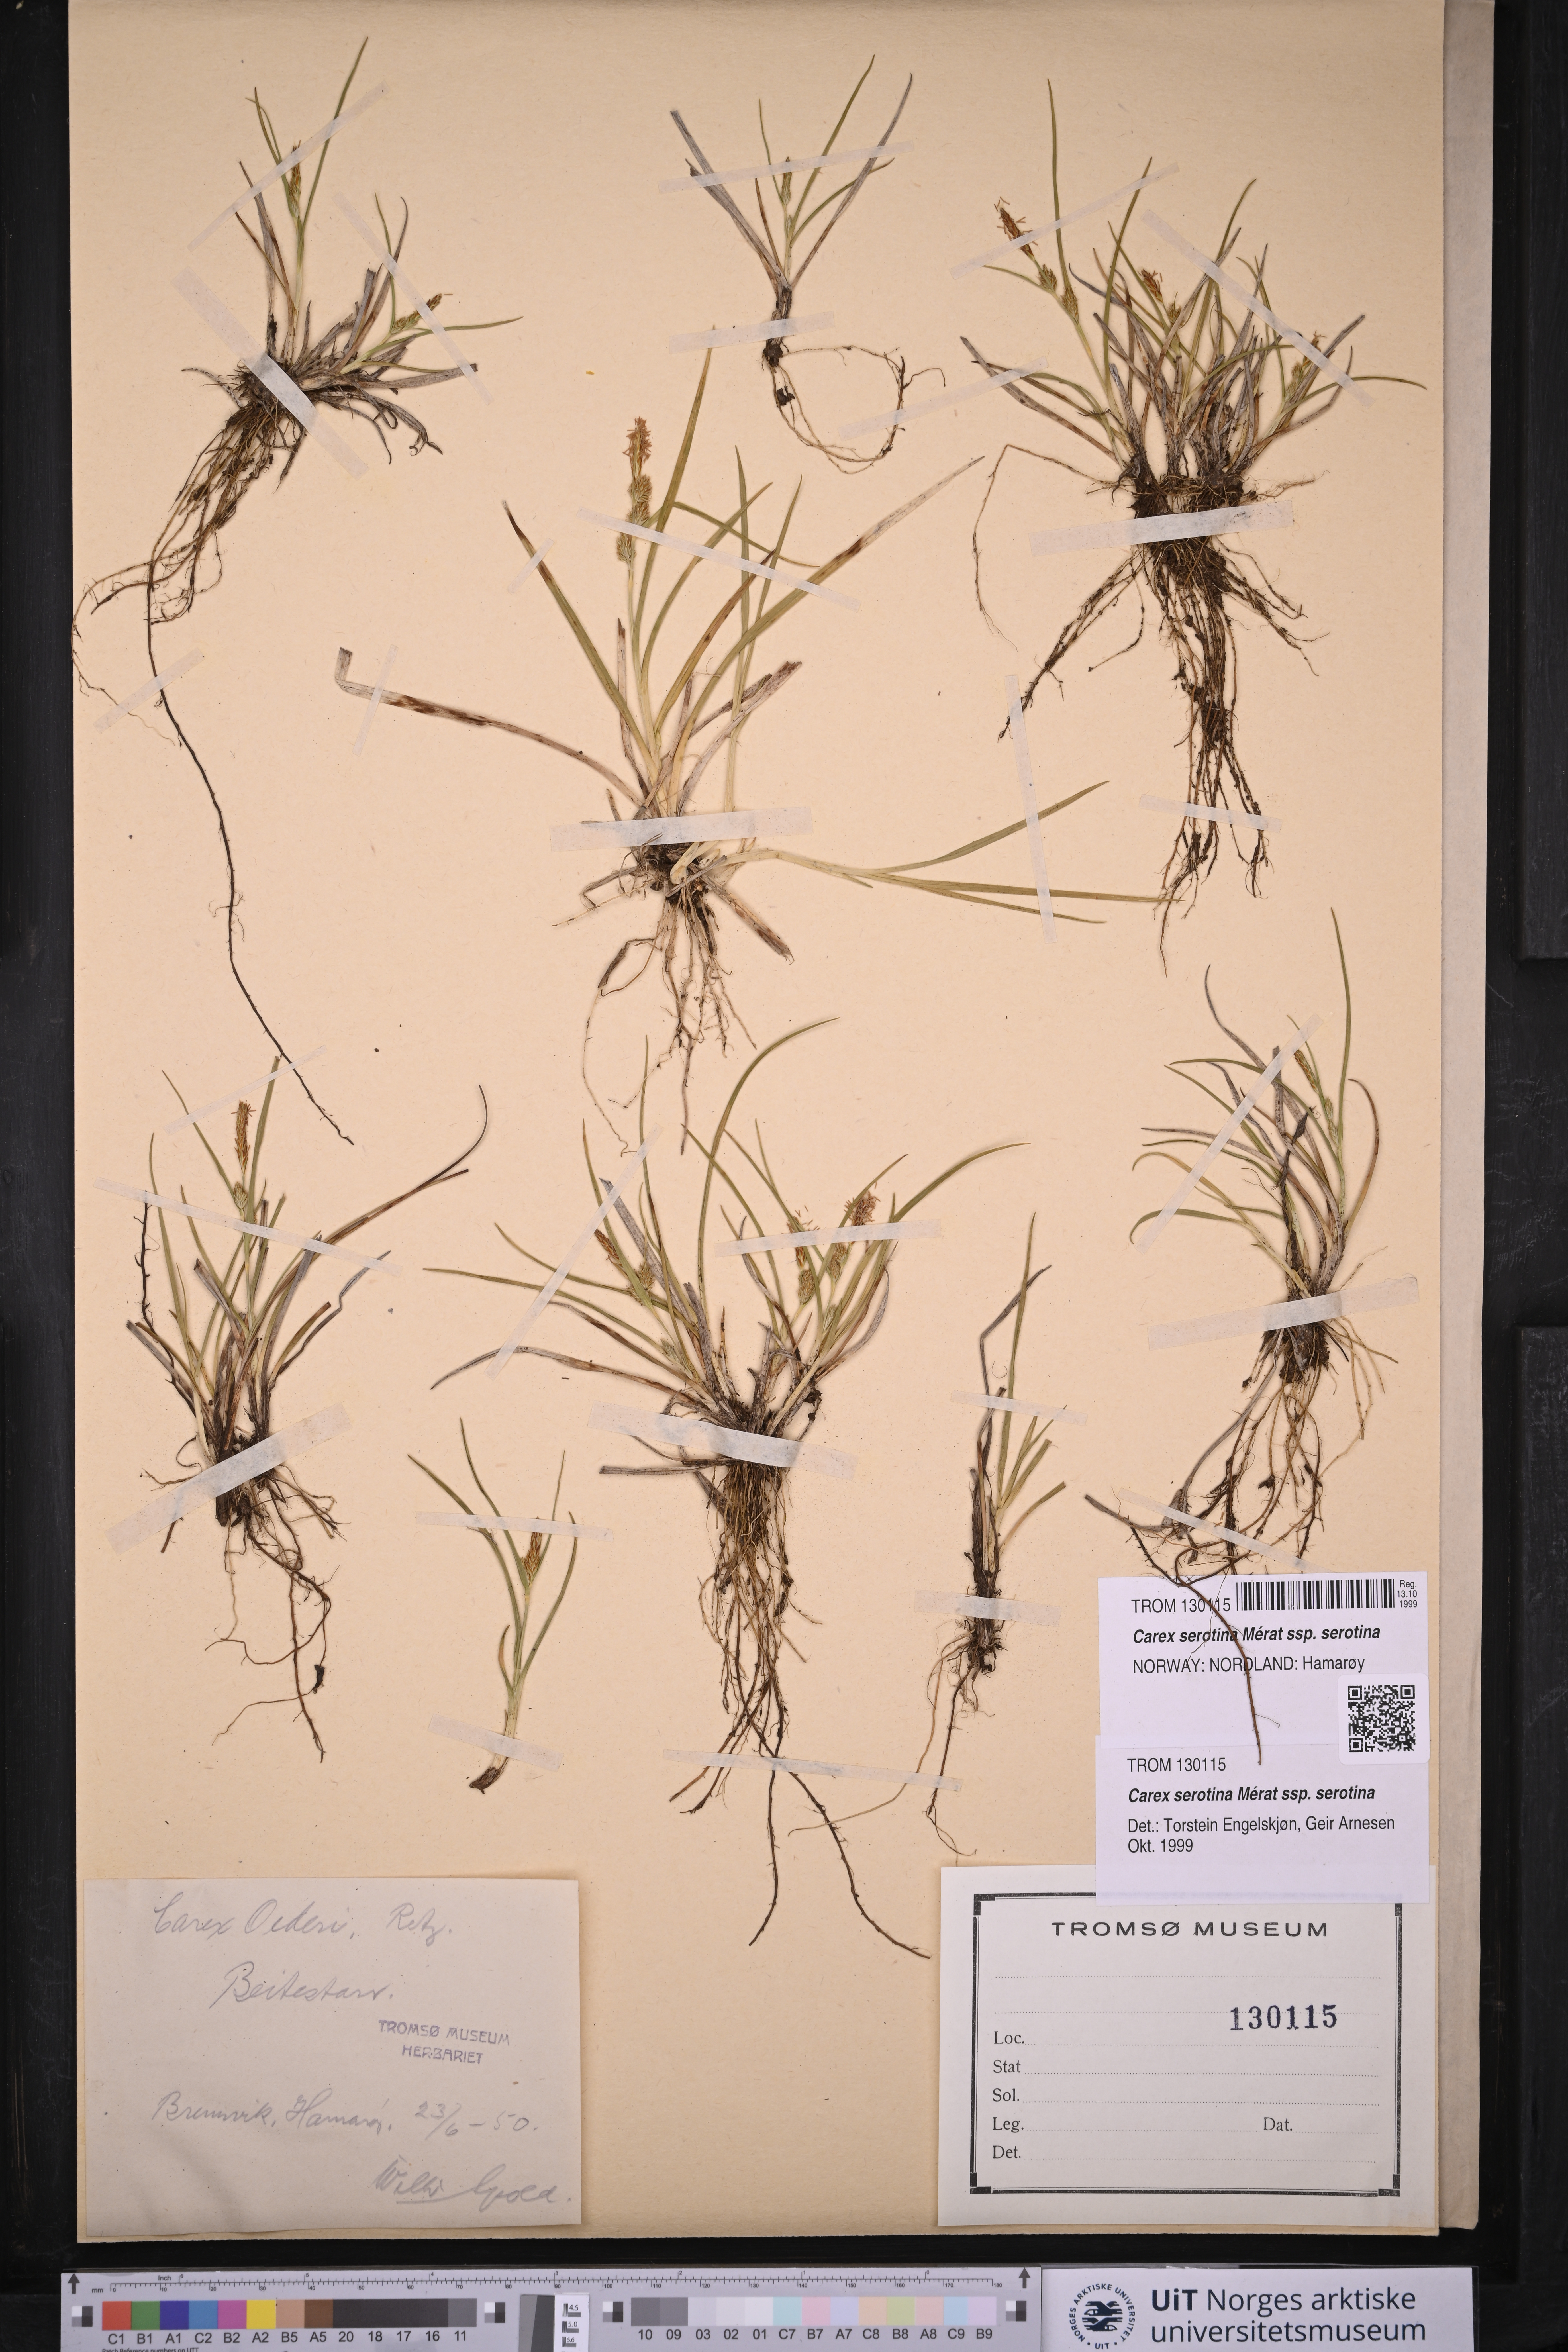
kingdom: Plantae
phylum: Tracheophyta
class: Liliopsida
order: Poales
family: Cyperaceae
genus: Carex
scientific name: Carex oederi
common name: Common & small-fruited yellow-sedge
